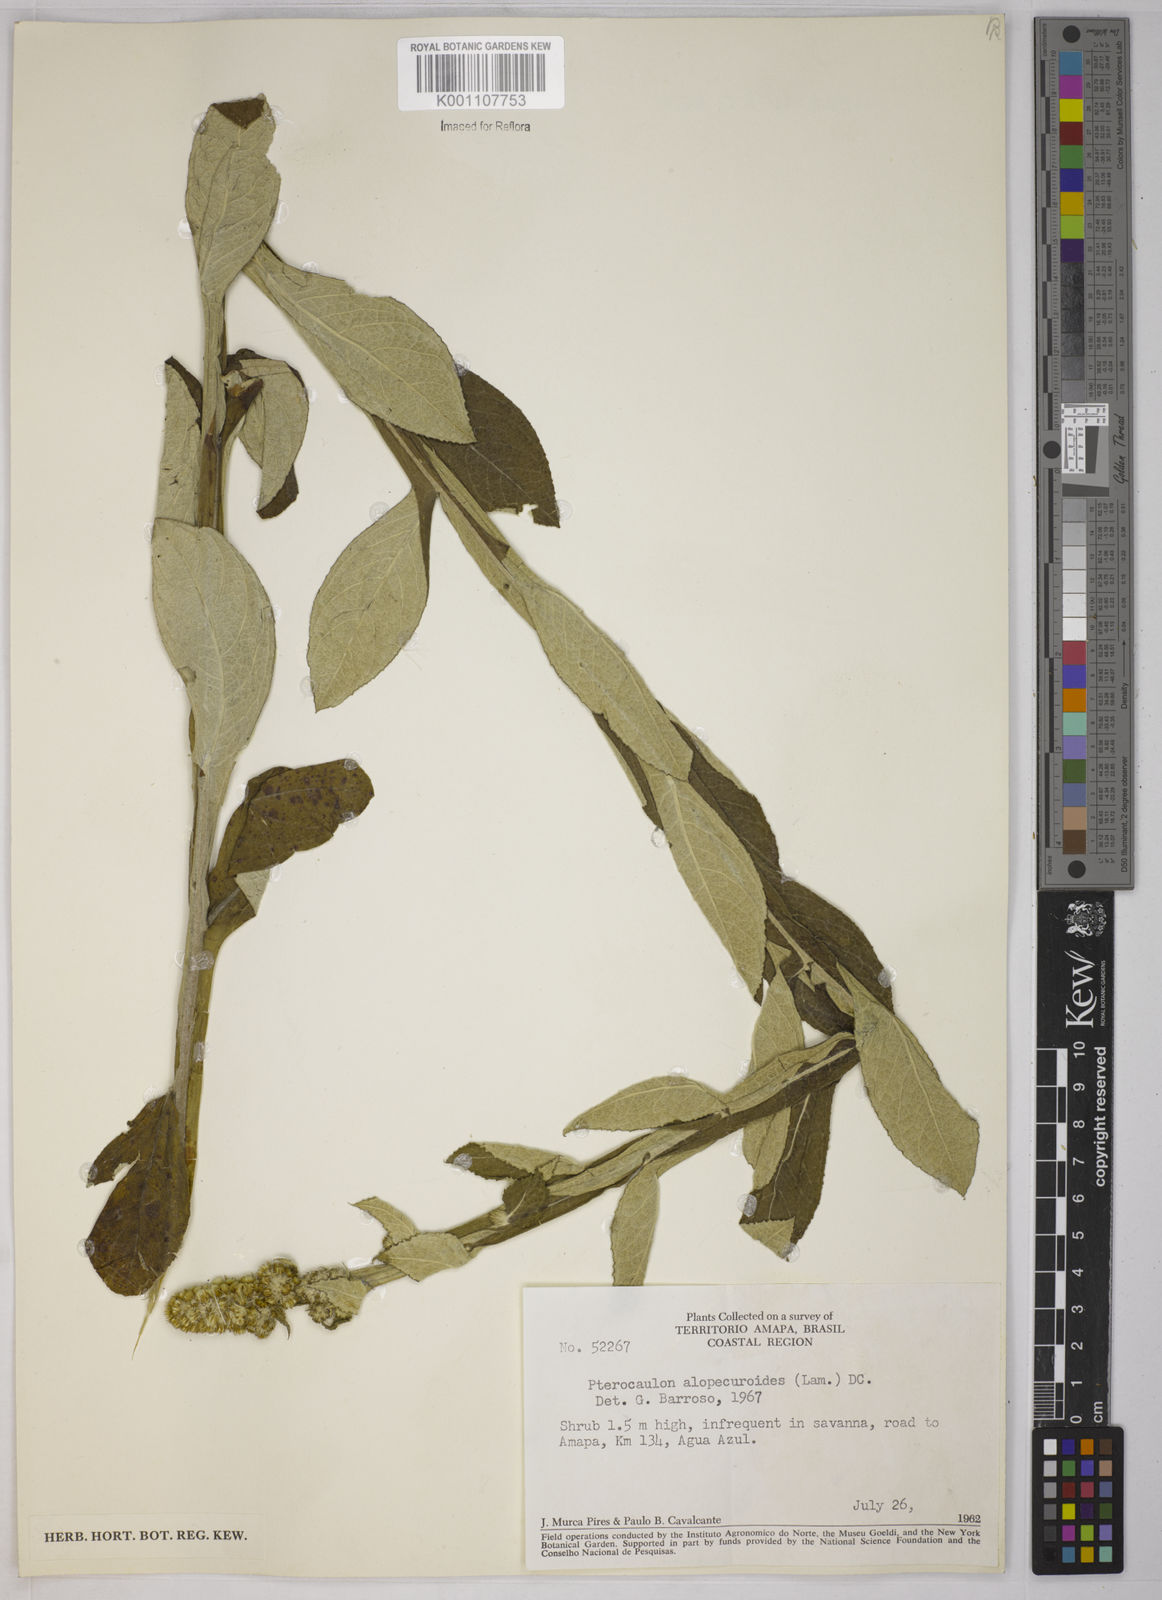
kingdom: Plantae
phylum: Tracheophyta
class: Magnoliopsida
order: Asterales
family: Asteraceae
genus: Pterocaulon
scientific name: Pterocaulon alopecuroides
